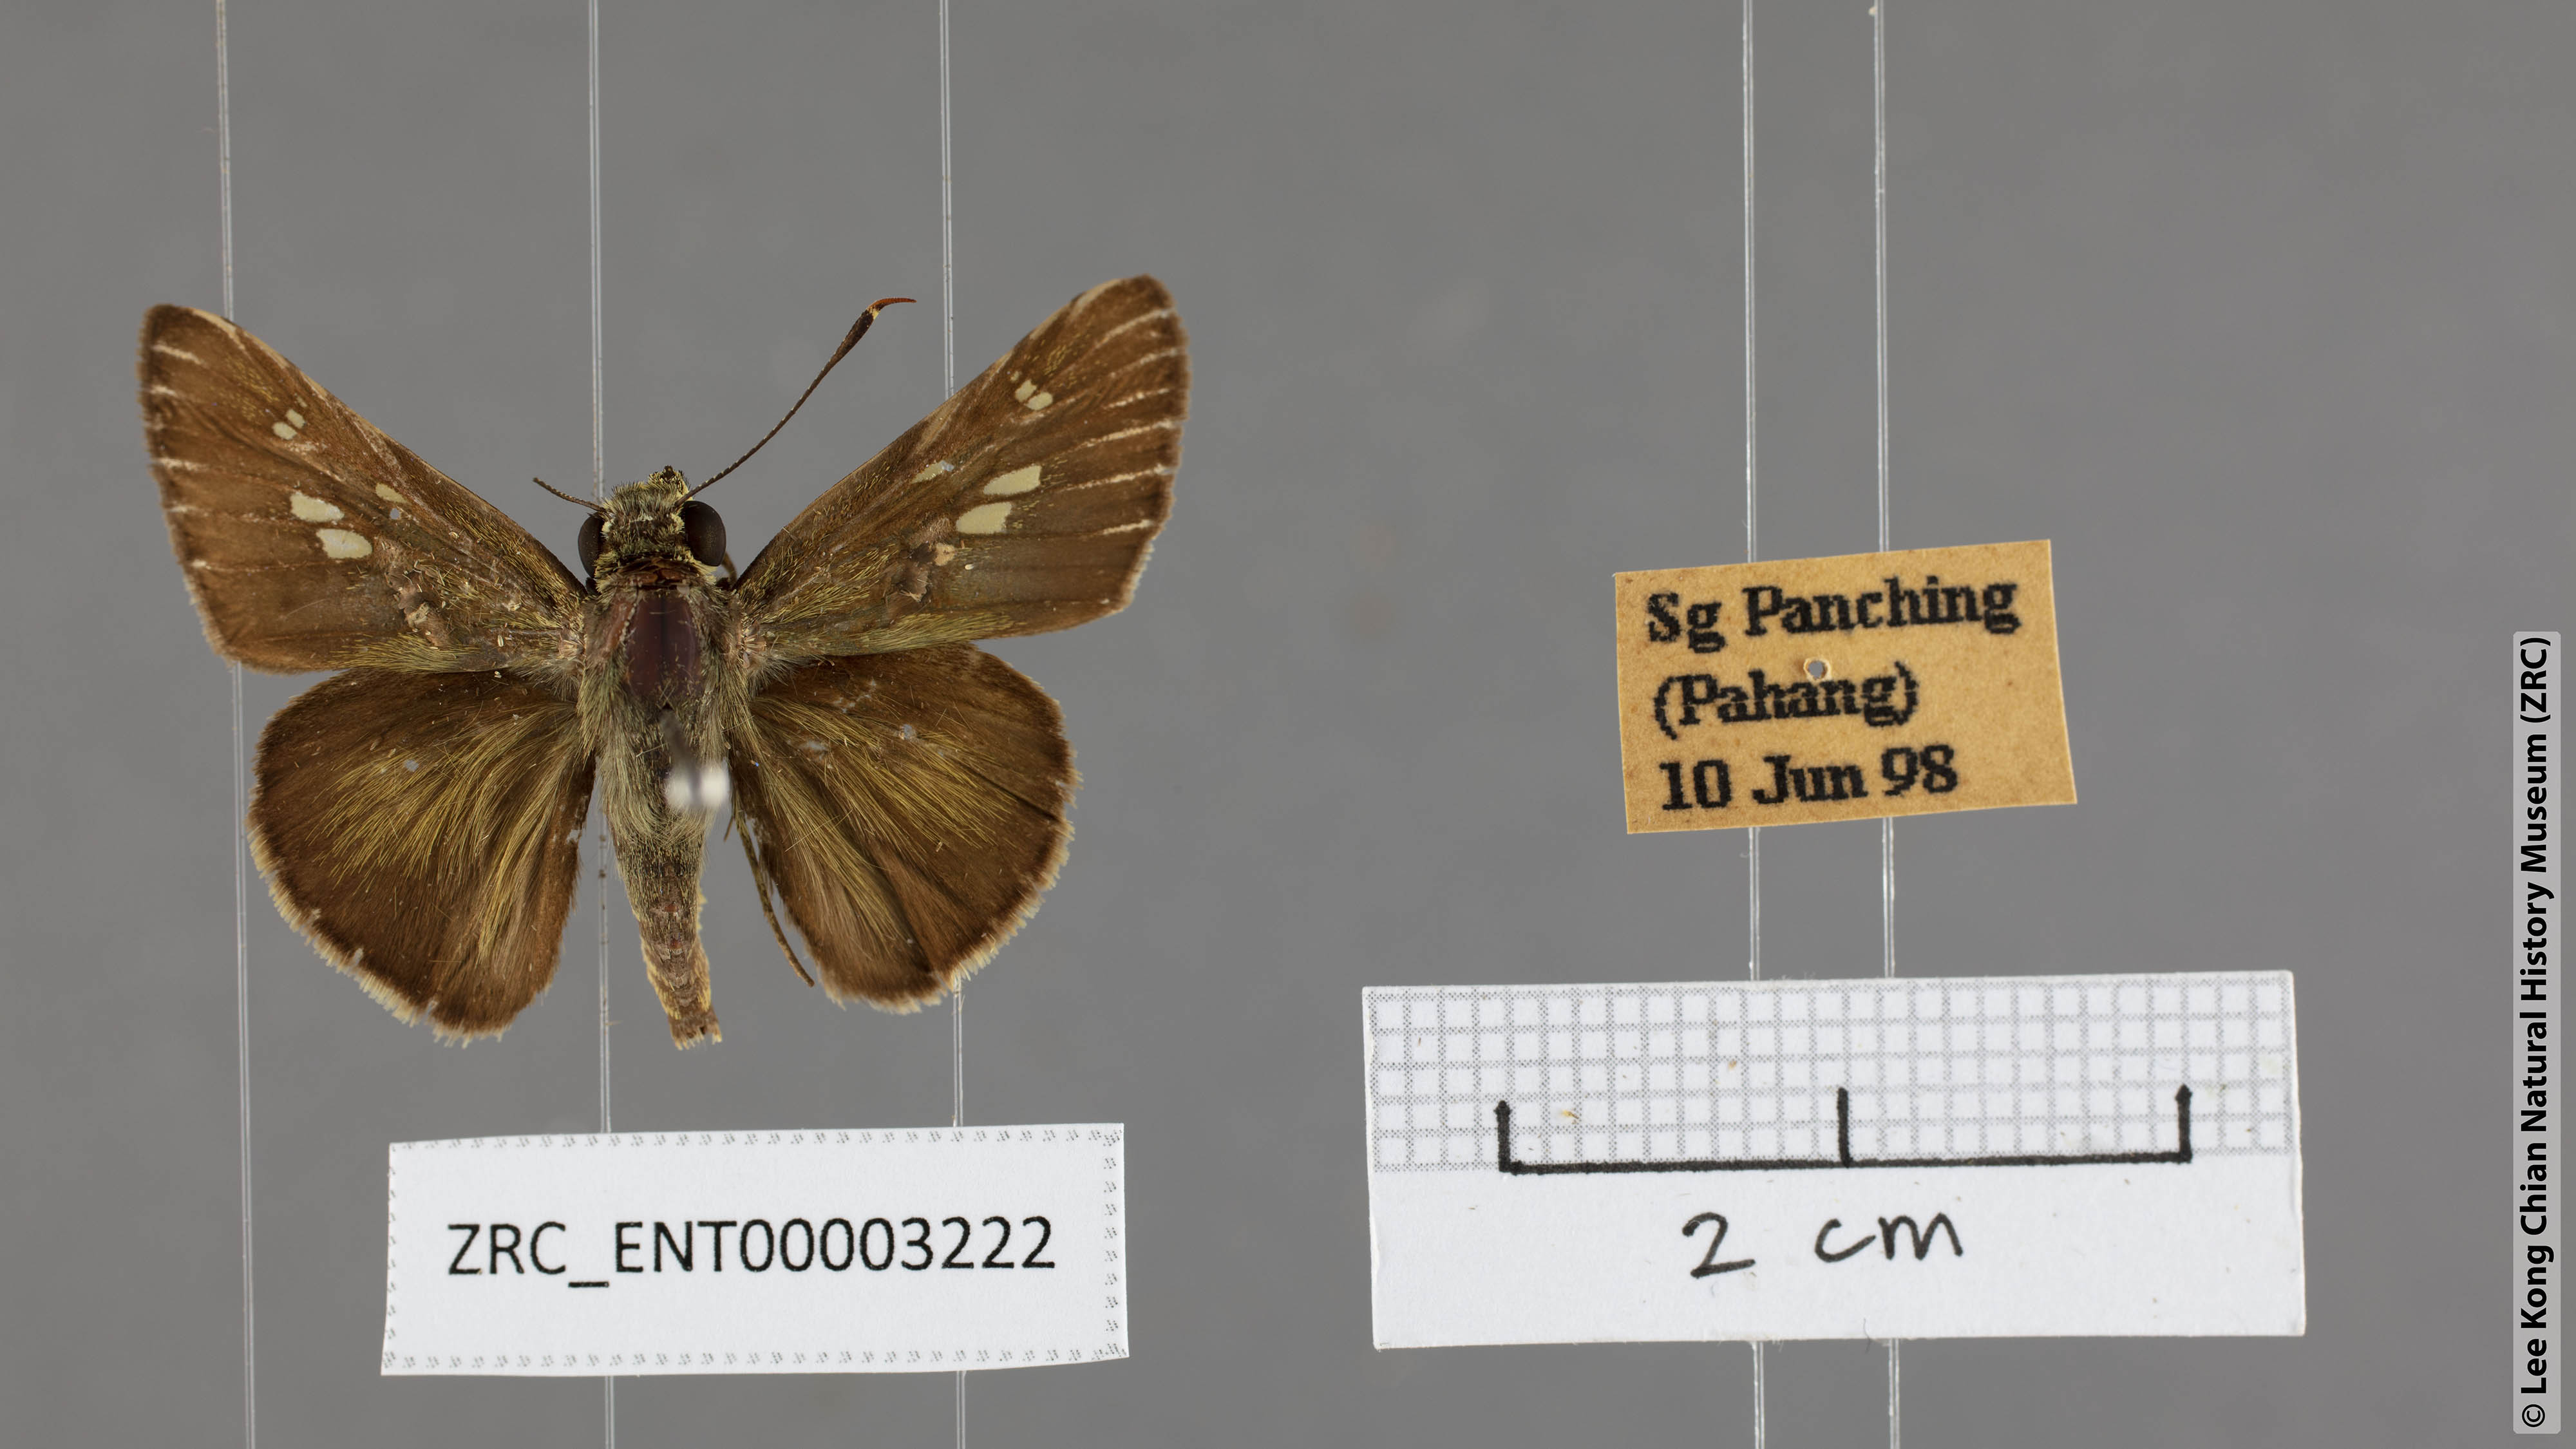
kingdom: Animalia
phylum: Arthropoda
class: Insecta
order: Lepidoptera
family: Hesperiidae
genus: Halpe
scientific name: Halpe elana
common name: Narrow-banded ace
